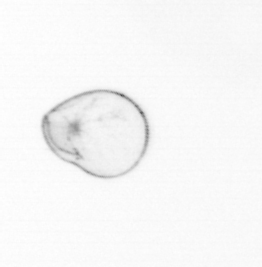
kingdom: Chromista
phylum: Myzozoa
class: Dinophyceae
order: Noctilucales
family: Noctilucaceae
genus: Noctiluca
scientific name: Noctiluca scintillans
